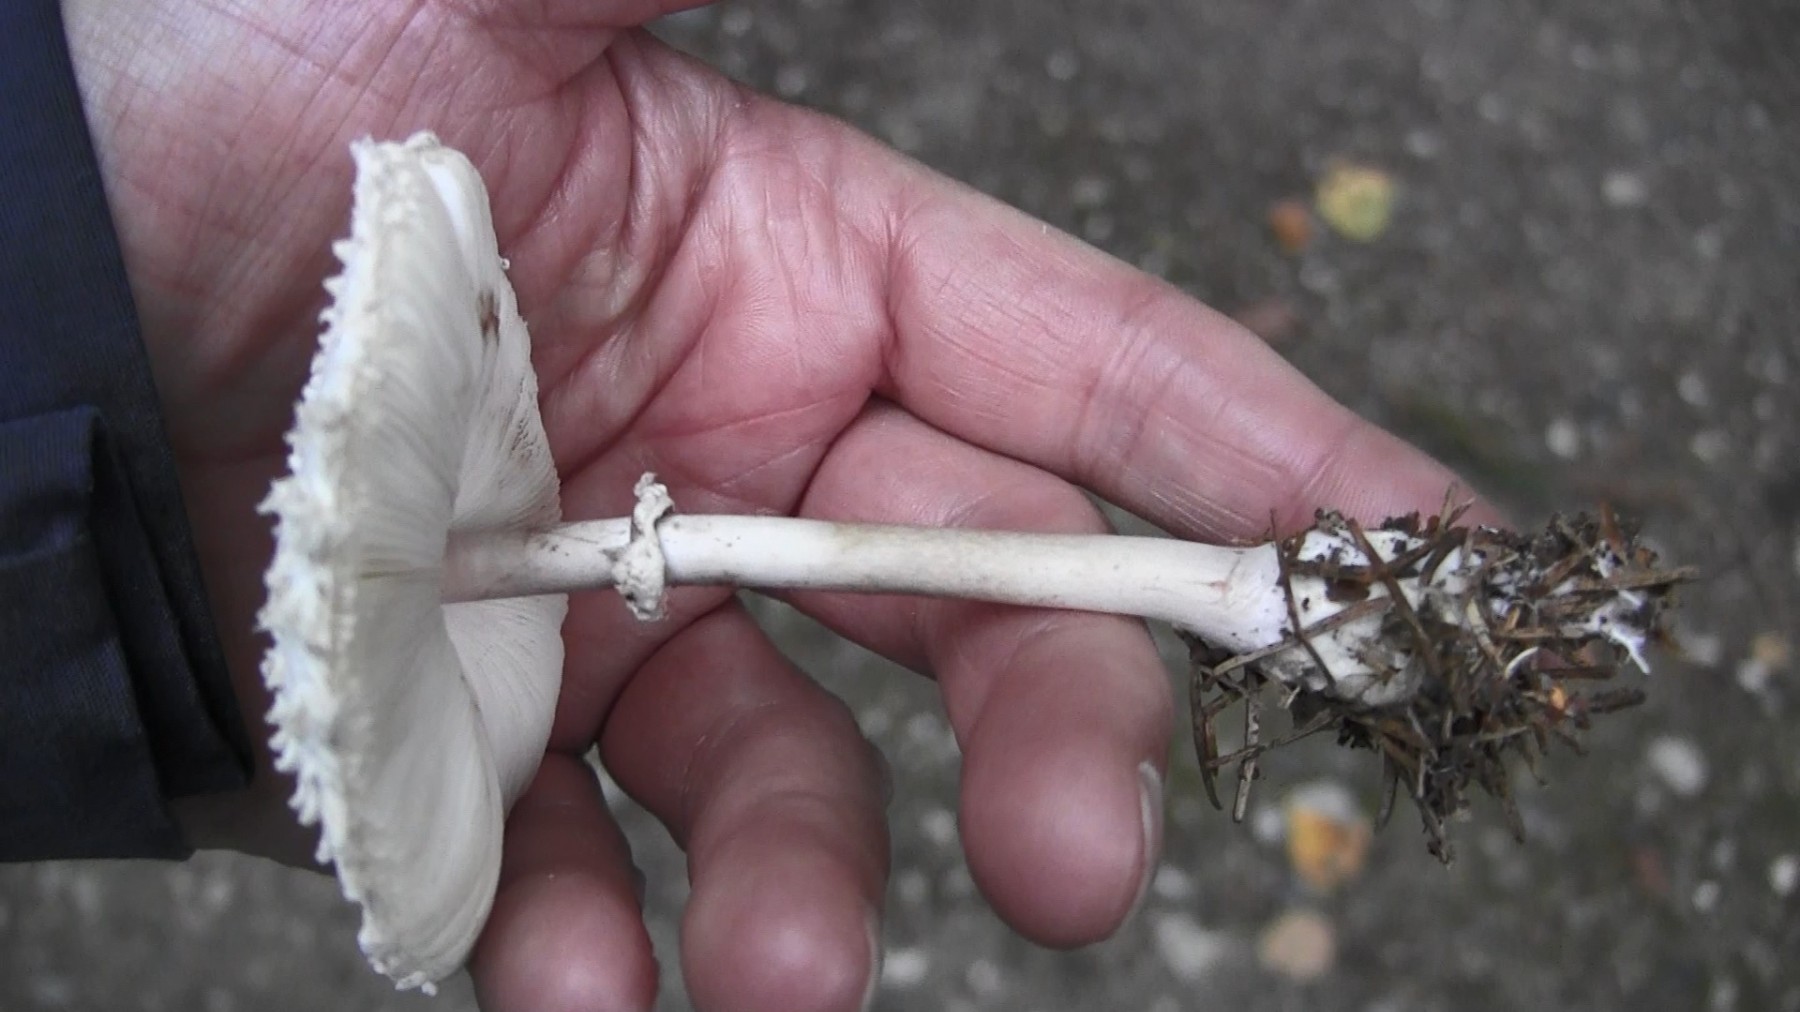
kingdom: Fungi
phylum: Basidiomycota
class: Agaricomycetes
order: Agaricales
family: Agaricaceae
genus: Leucoagaricus
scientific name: Leucoagaricus nympharum
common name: gran-silkehat
